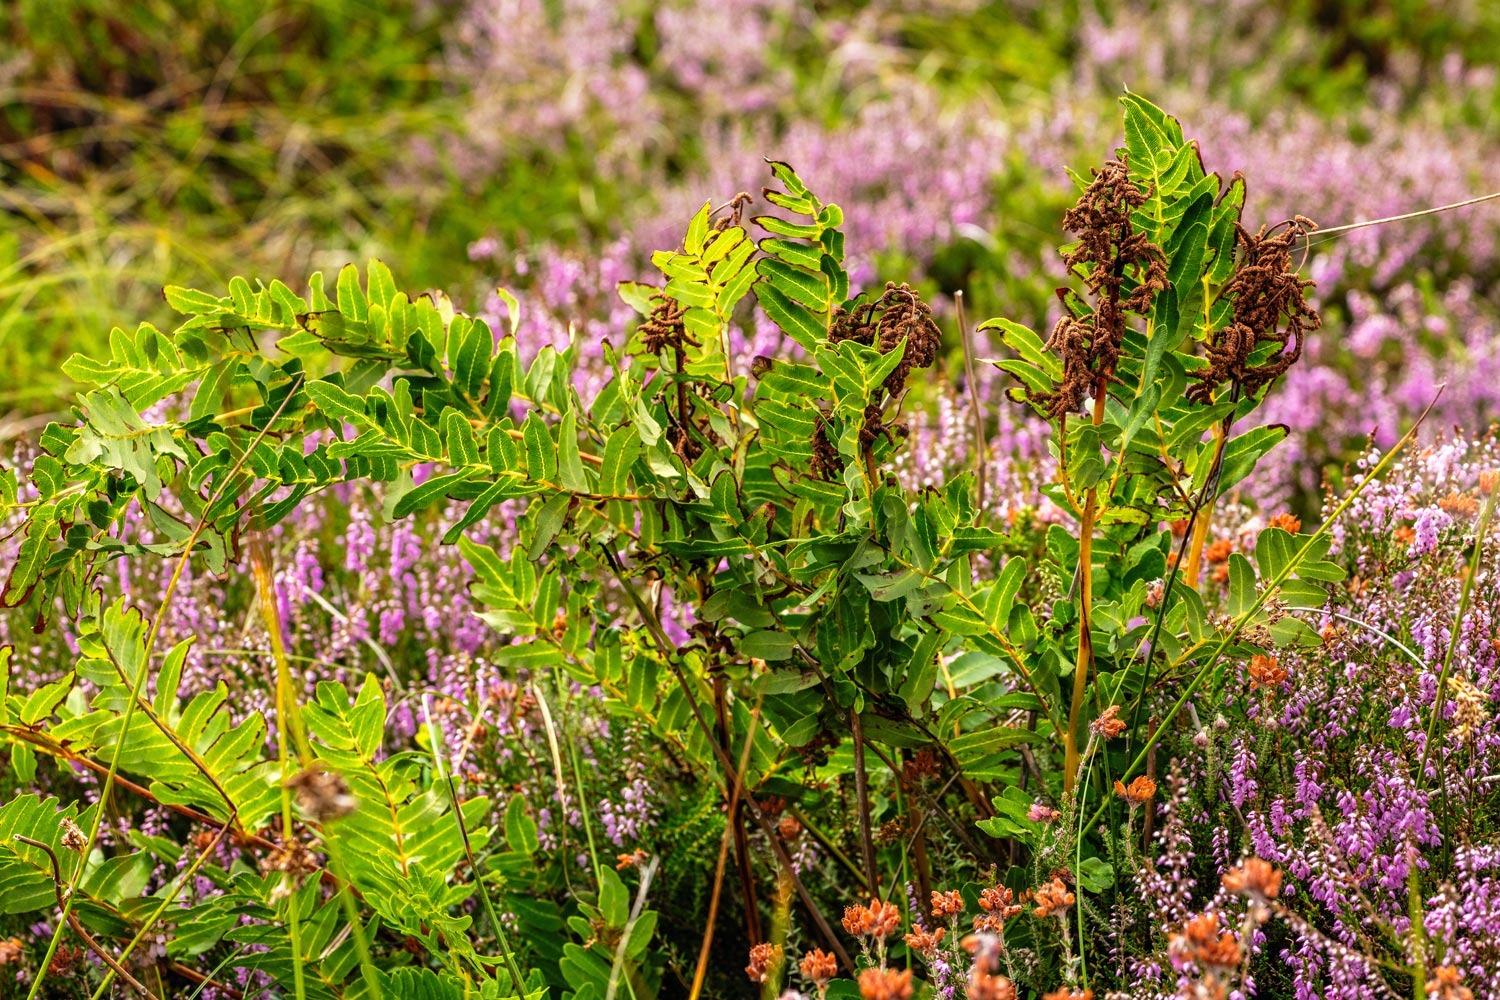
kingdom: Plantae
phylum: Tracheophyta
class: Polypodiopsida
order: Osmundales
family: Osmundaceae
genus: Osmunda
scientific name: Osmunda regalis
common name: Kongebregne
